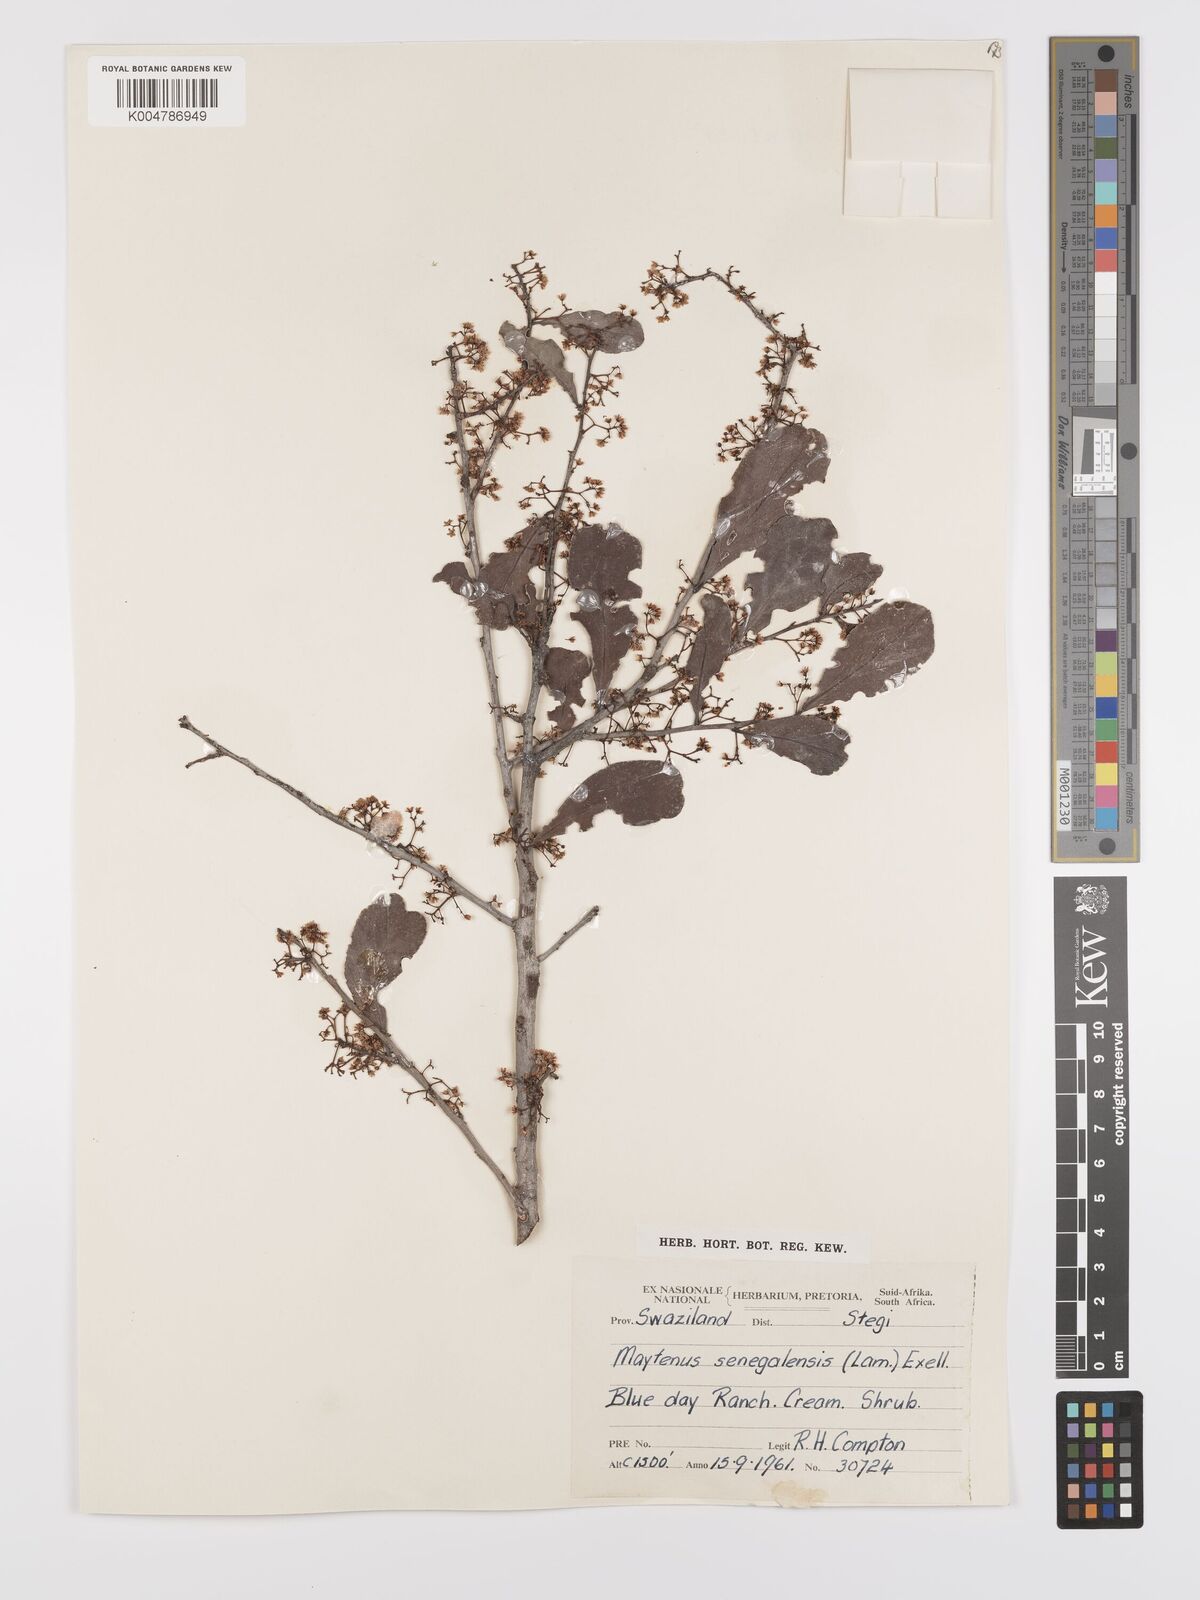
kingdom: Plantae
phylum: Tracheophyta
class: Magnoliopsida
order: Celastrales
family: Celastraceae
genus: Gymnosporia
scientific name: Gymnosporia senegalensis
